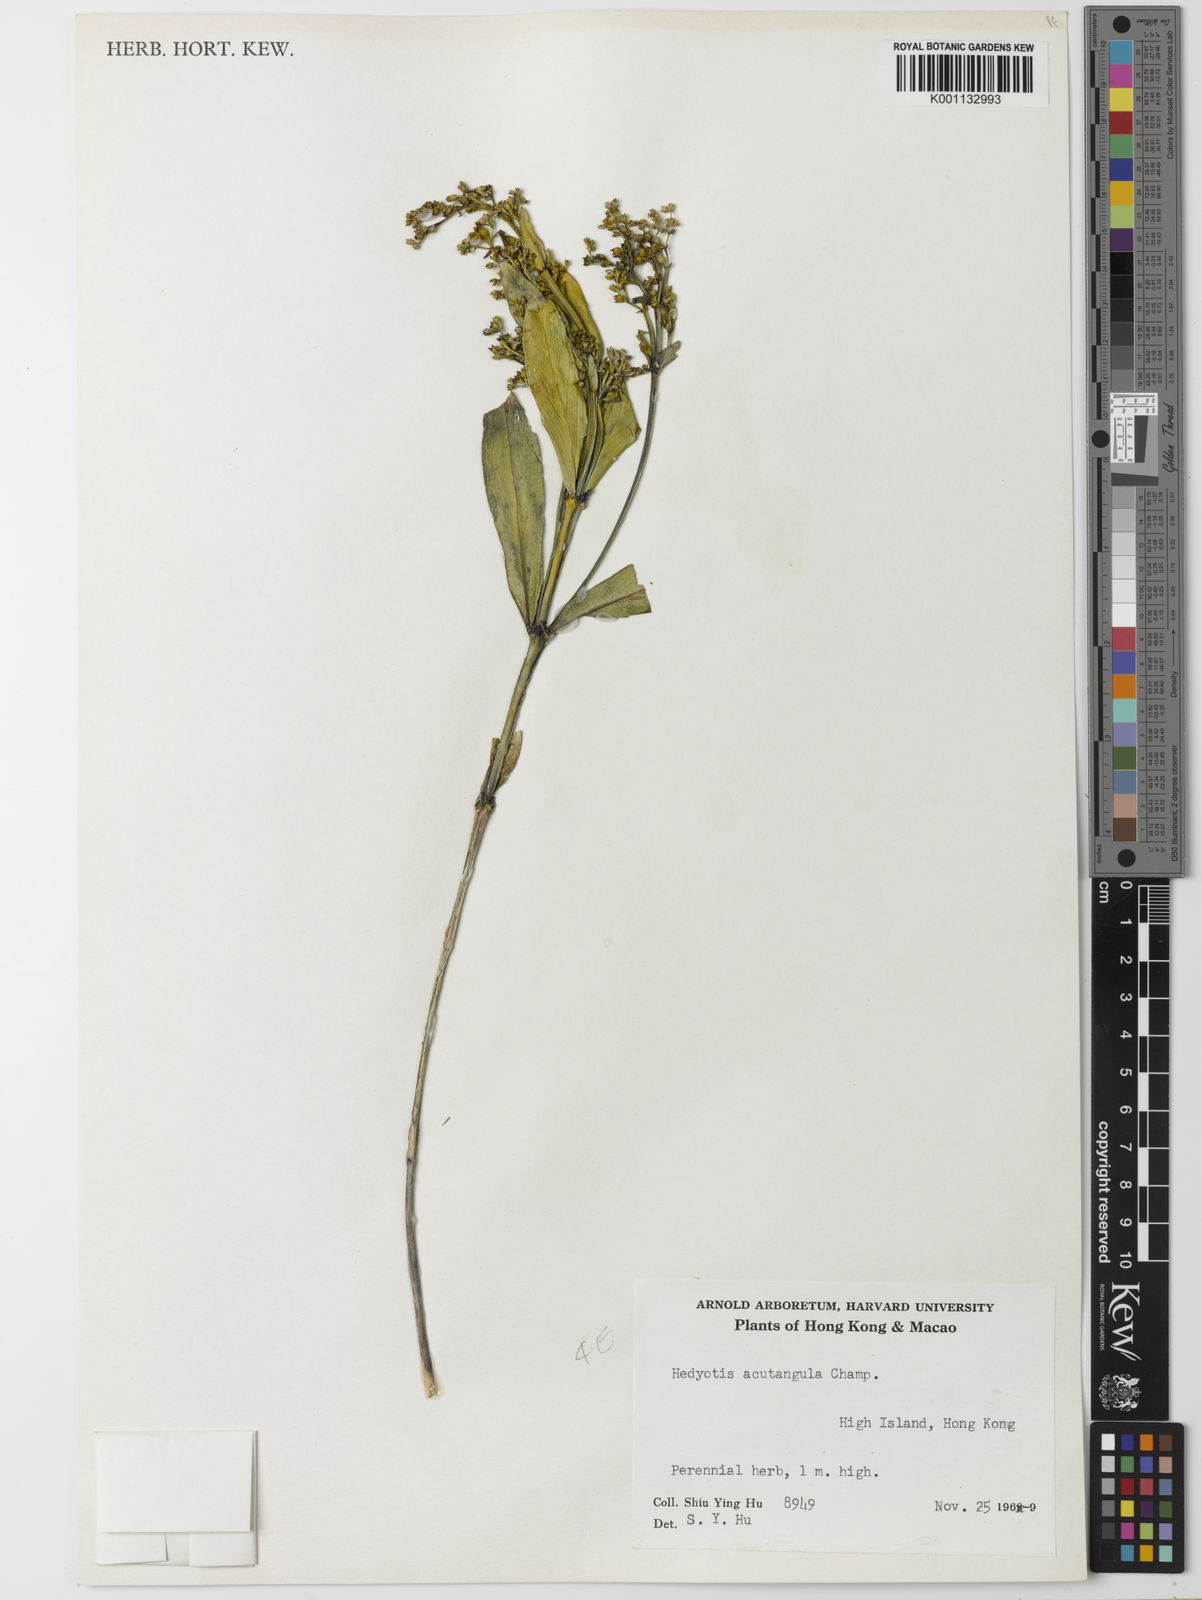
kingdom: Plantae
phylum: Tracheophyta
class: Magnoliopsida
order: Gentianales
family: Rubiaceae
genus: Hedyotis
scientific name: Hedyotis acutangula
